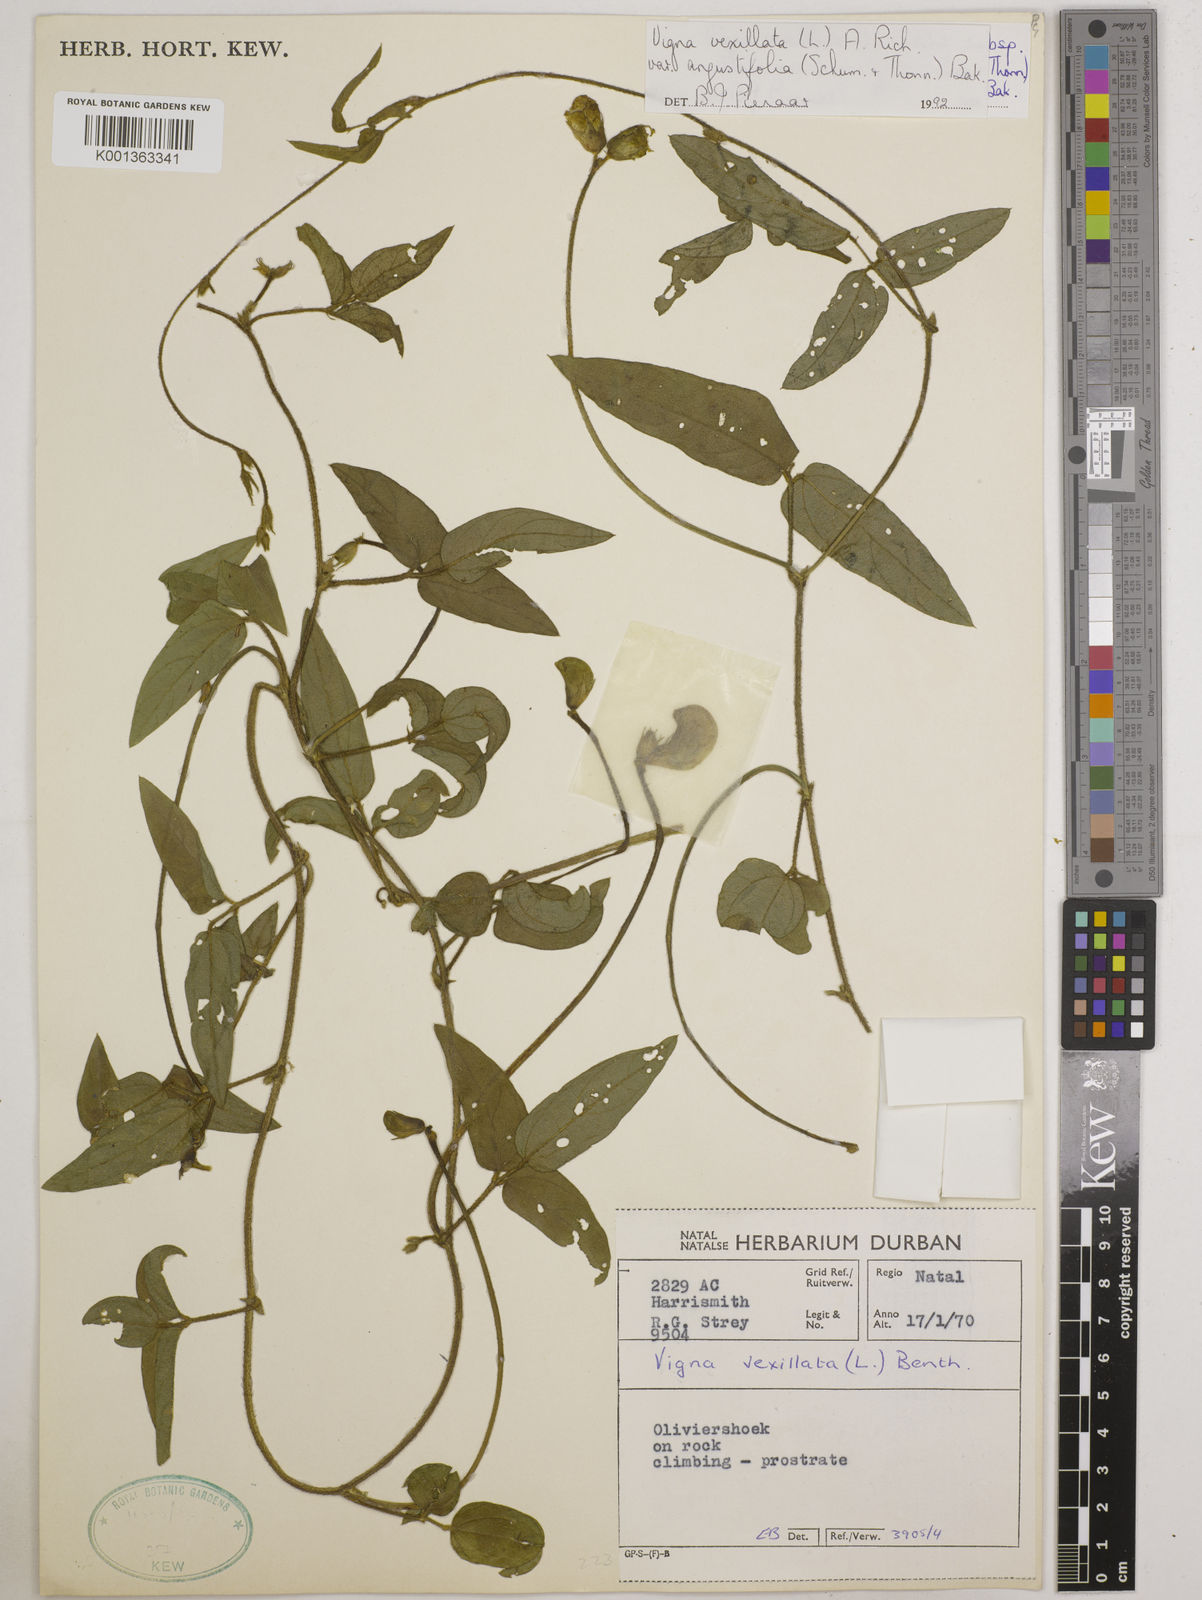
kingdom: Plantae
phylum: Tracheophyta
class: Magnoliopsida
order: Fabales
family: Fabaceae
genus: Vigna
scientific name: Vigna
